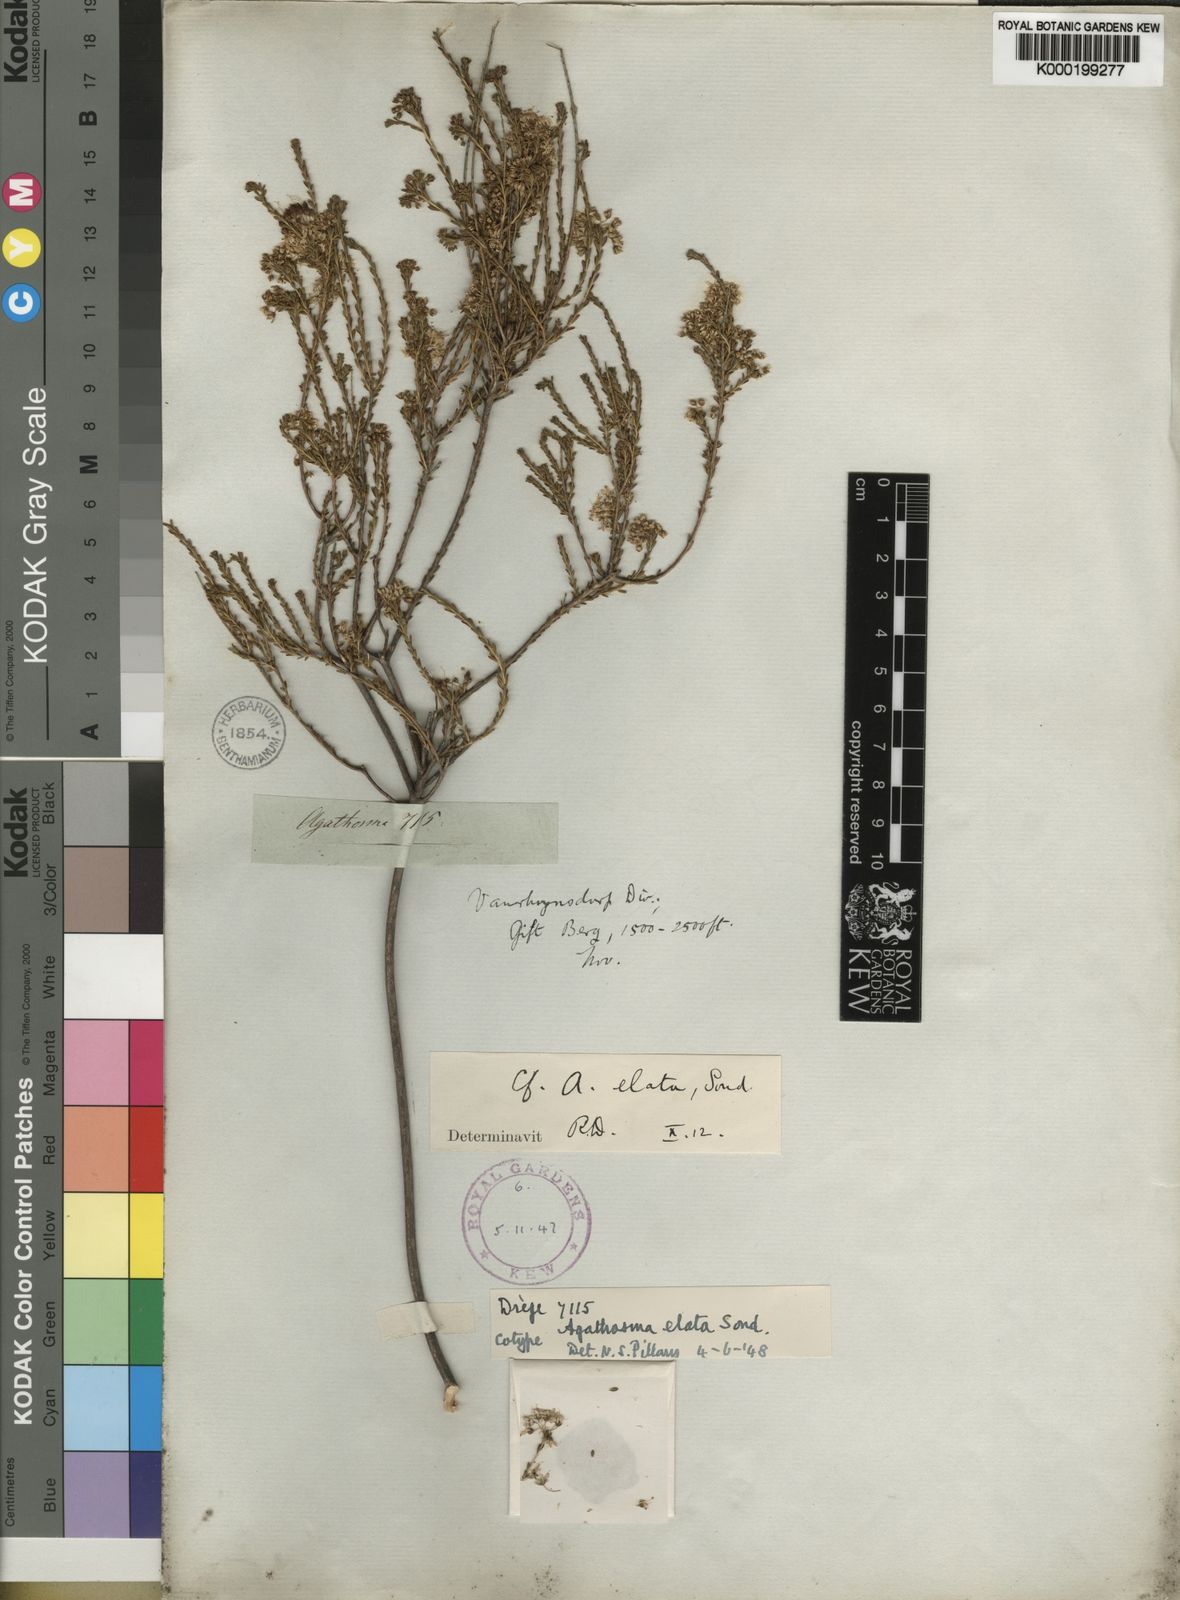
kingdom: Plantae
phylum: Tracheophyta
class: Magnoliopsida
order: Sapindales
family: Rutaceae
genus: Agathosma
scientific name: Agathosma elata
